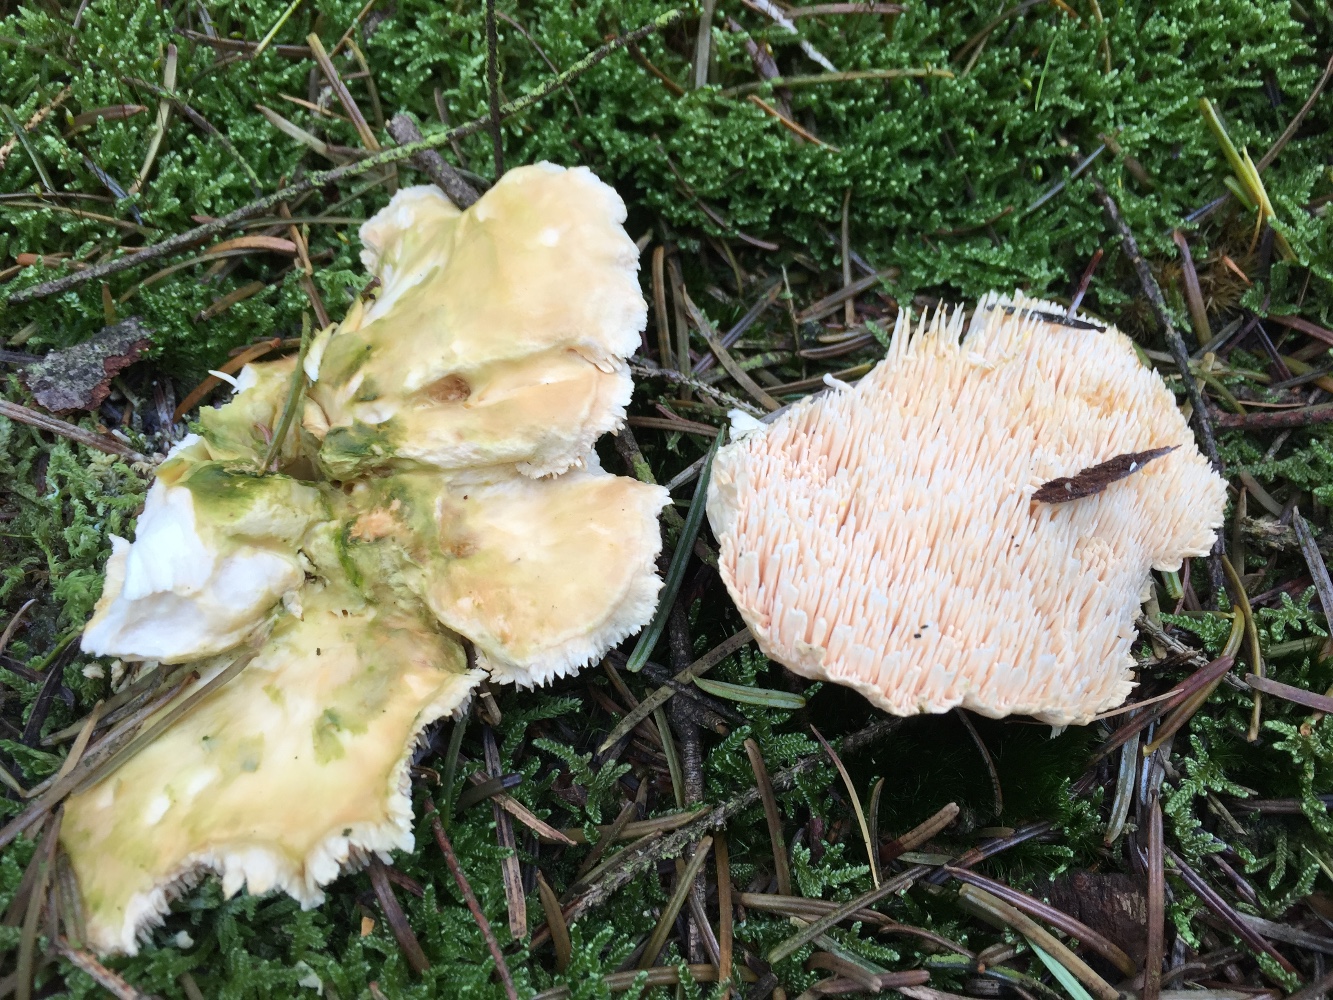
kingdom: Fungi
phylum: Basidiomycota
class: Agaricomycetes
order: Cantharellales
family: Hydnaceae
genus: Hydnum
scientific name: Hydnum repandum
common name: almindelig pigsvamp
